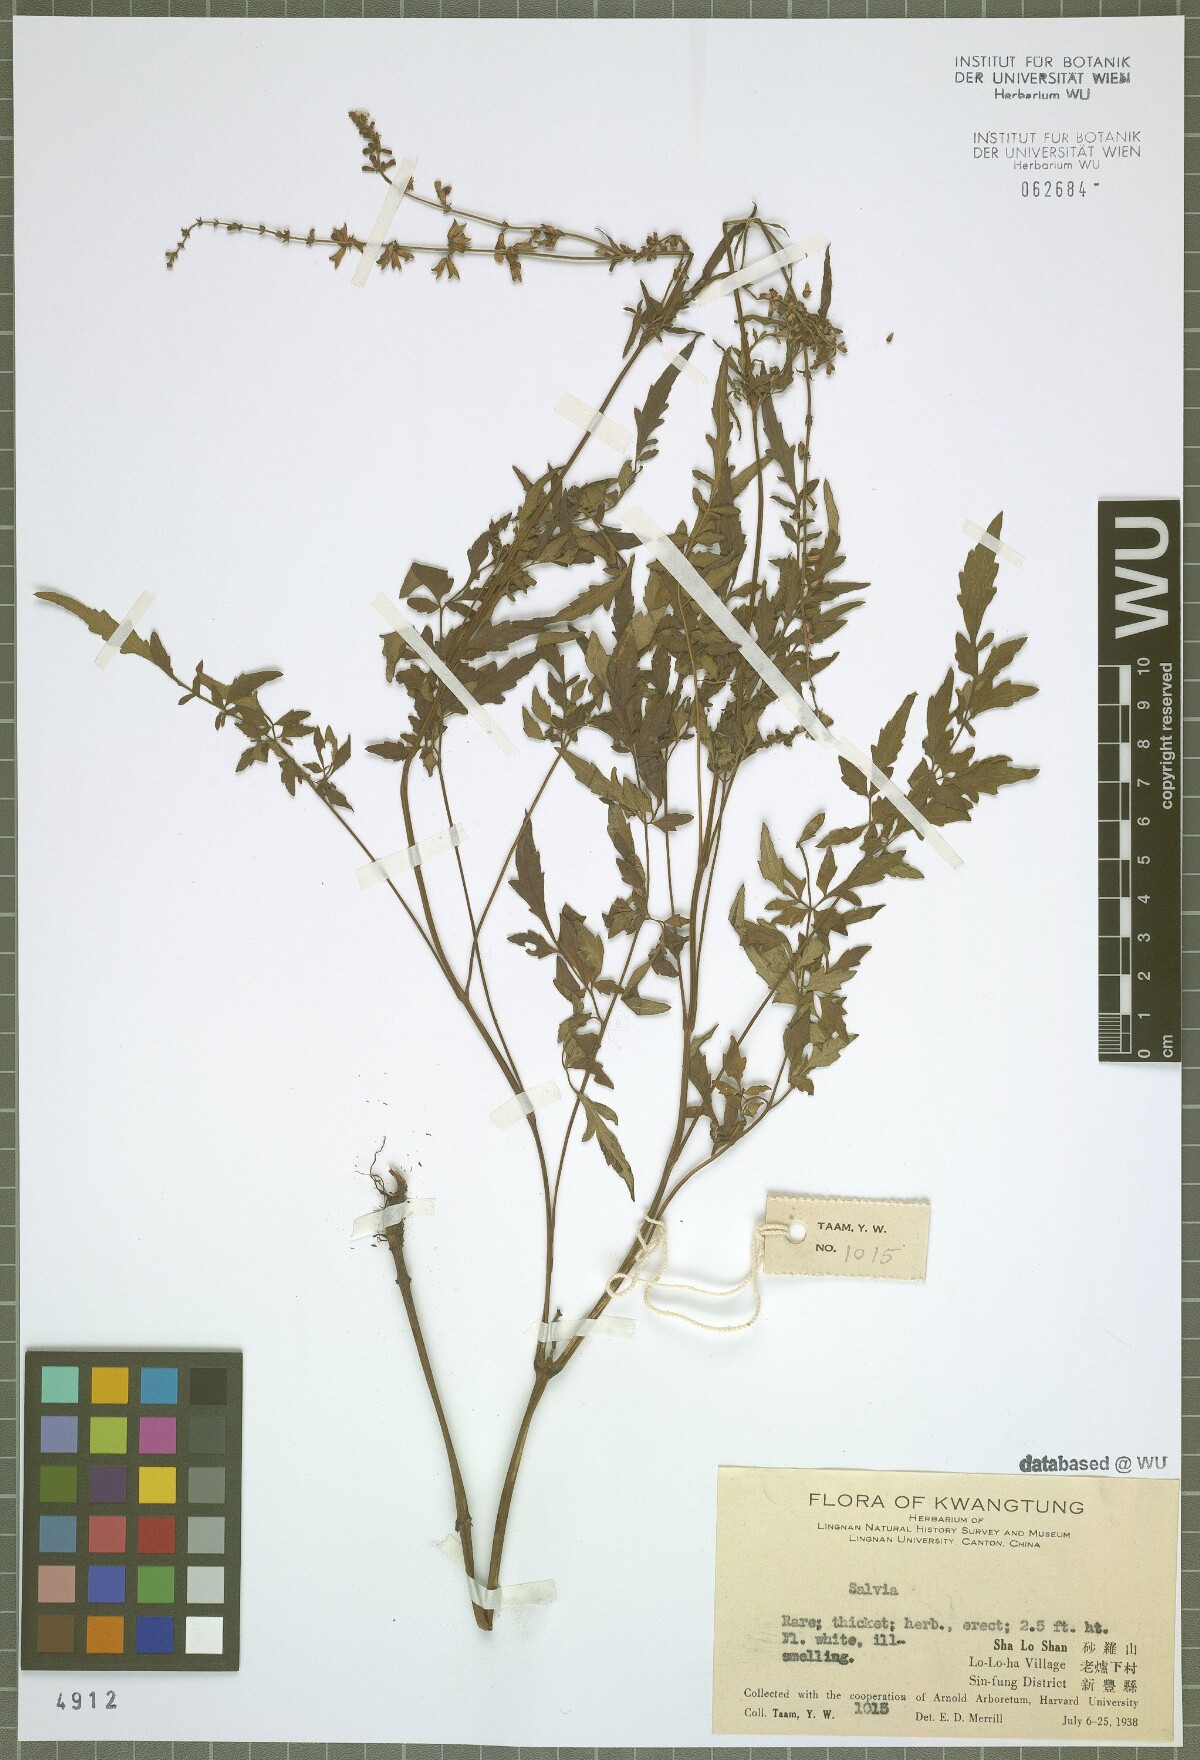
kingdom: Plantae
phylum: Tracheophyta
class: Magnoliopsida
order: Lamiales
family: Lamiaceae
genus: Salvia
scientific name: Salvia
